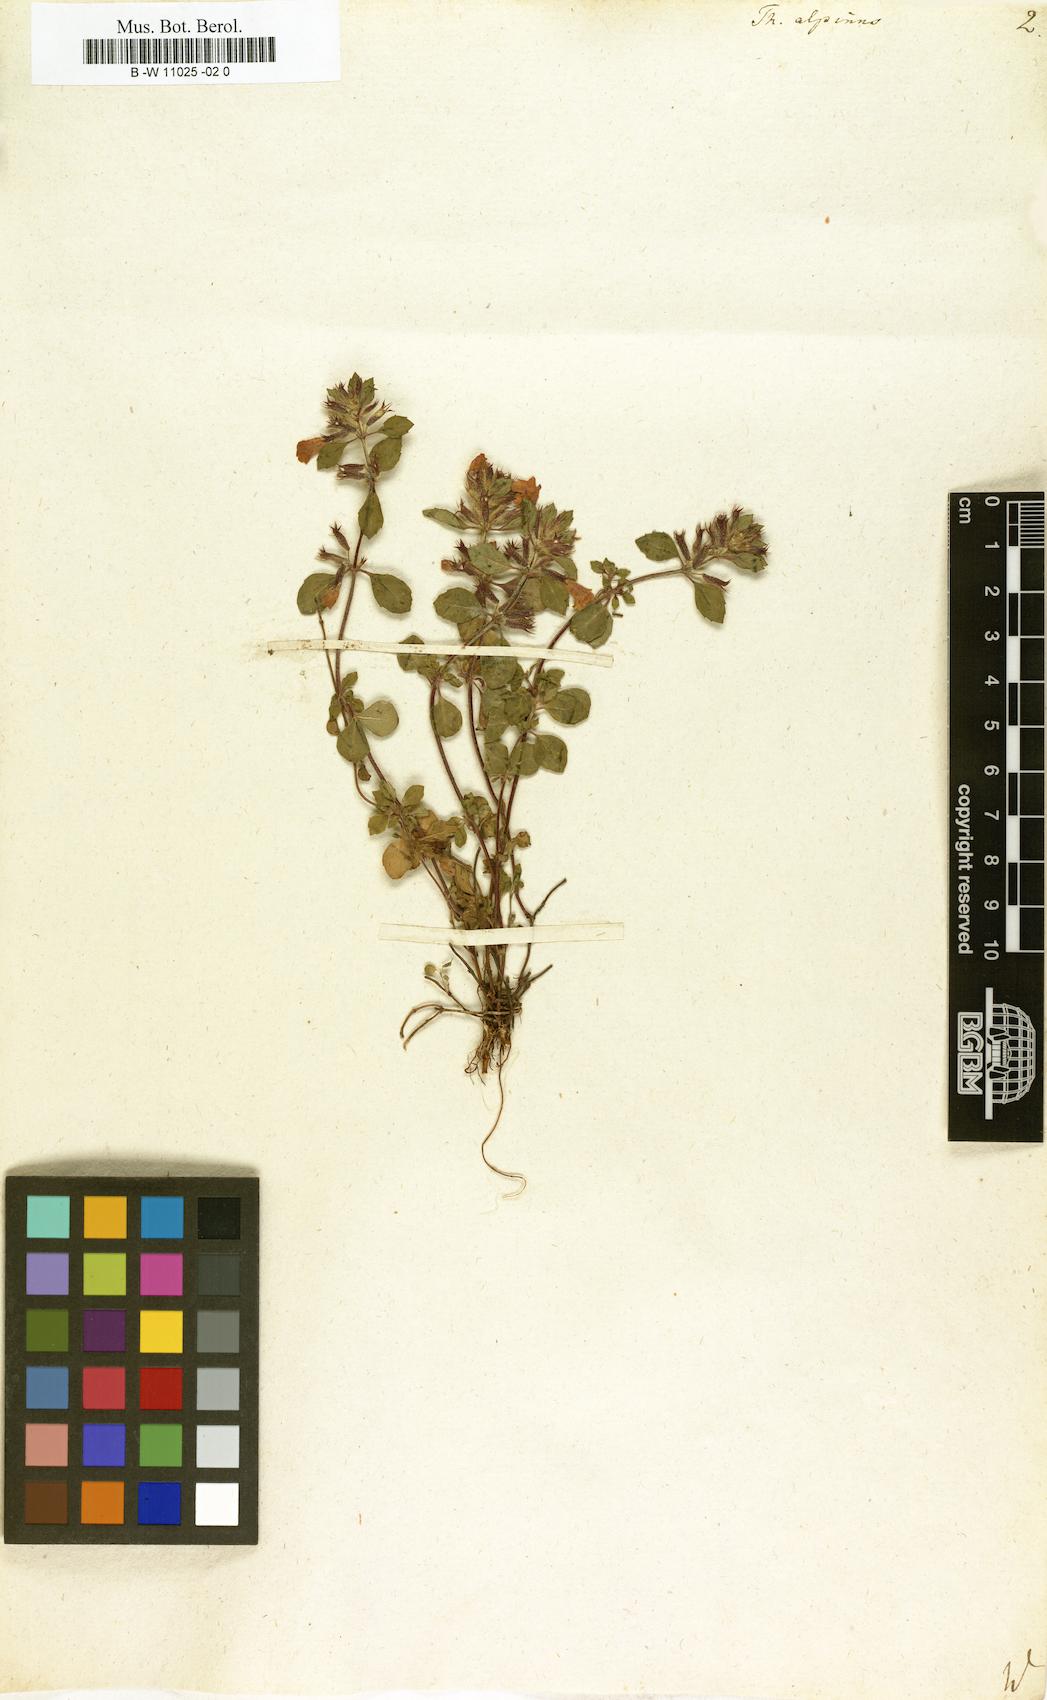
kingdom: Plantae
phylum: Tracheophyta
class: Magnoliopsida
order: Lamiales
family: Lamiaceae
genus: Thymus
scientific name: Thymus alpinus
